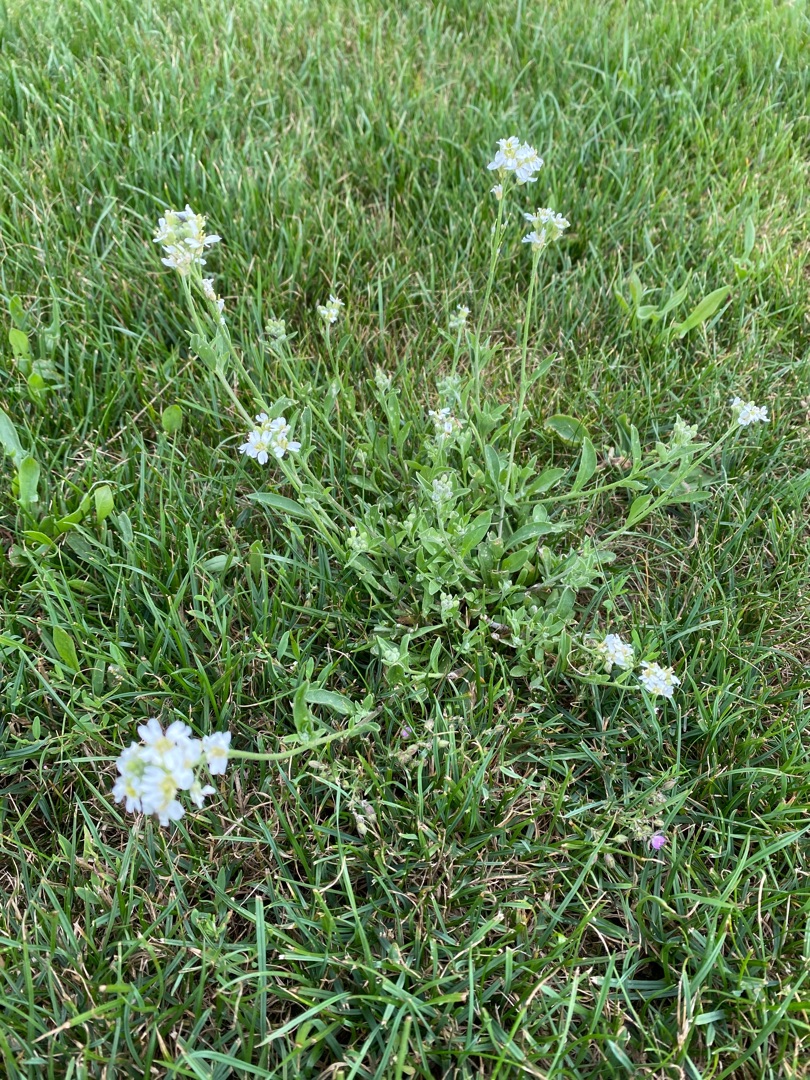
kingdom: Plantae
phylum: Tracheophyta
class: Magnoliopsida
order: Brassicales
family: Brassicaceae
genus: Berteroa
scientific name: Berteroa incana
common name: Kløvplade
